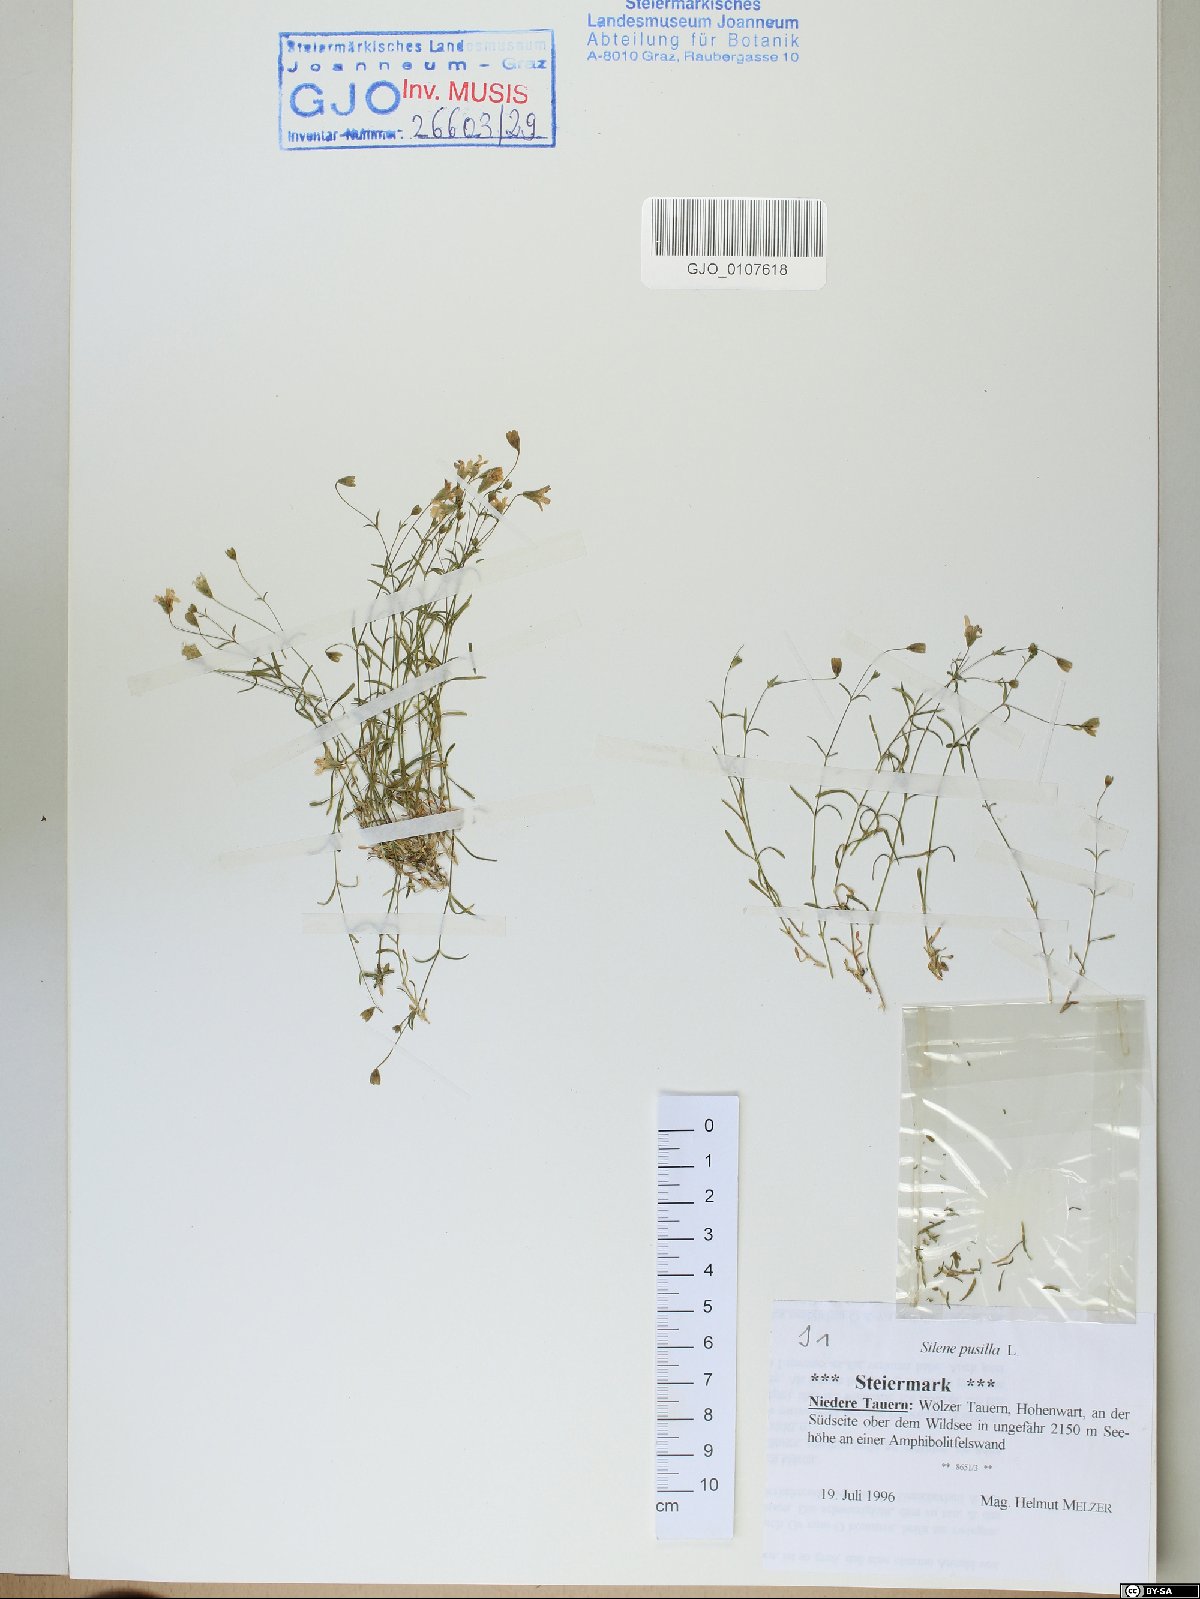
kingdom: Plantae
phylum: Tracheophyta
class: Magnoliopsida
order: Caryophyllales
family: Caryophyllaceae
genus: Heliosperma
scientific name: Heliosperma pusillum
